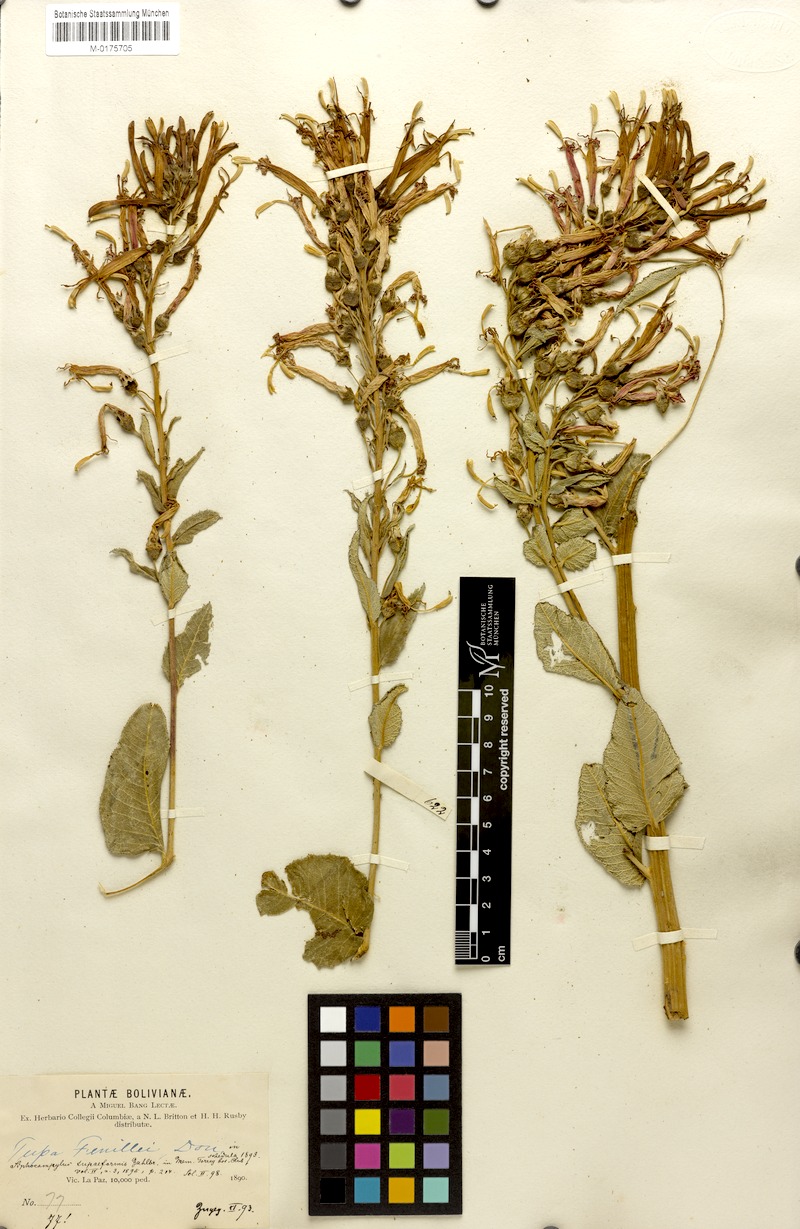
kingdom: Plantae
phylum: Tracheophyta
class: Magnoliopsida
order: Asterales
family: Campanulaceae
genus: Siphocampylus
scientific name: Siphocampylus tupiformis
